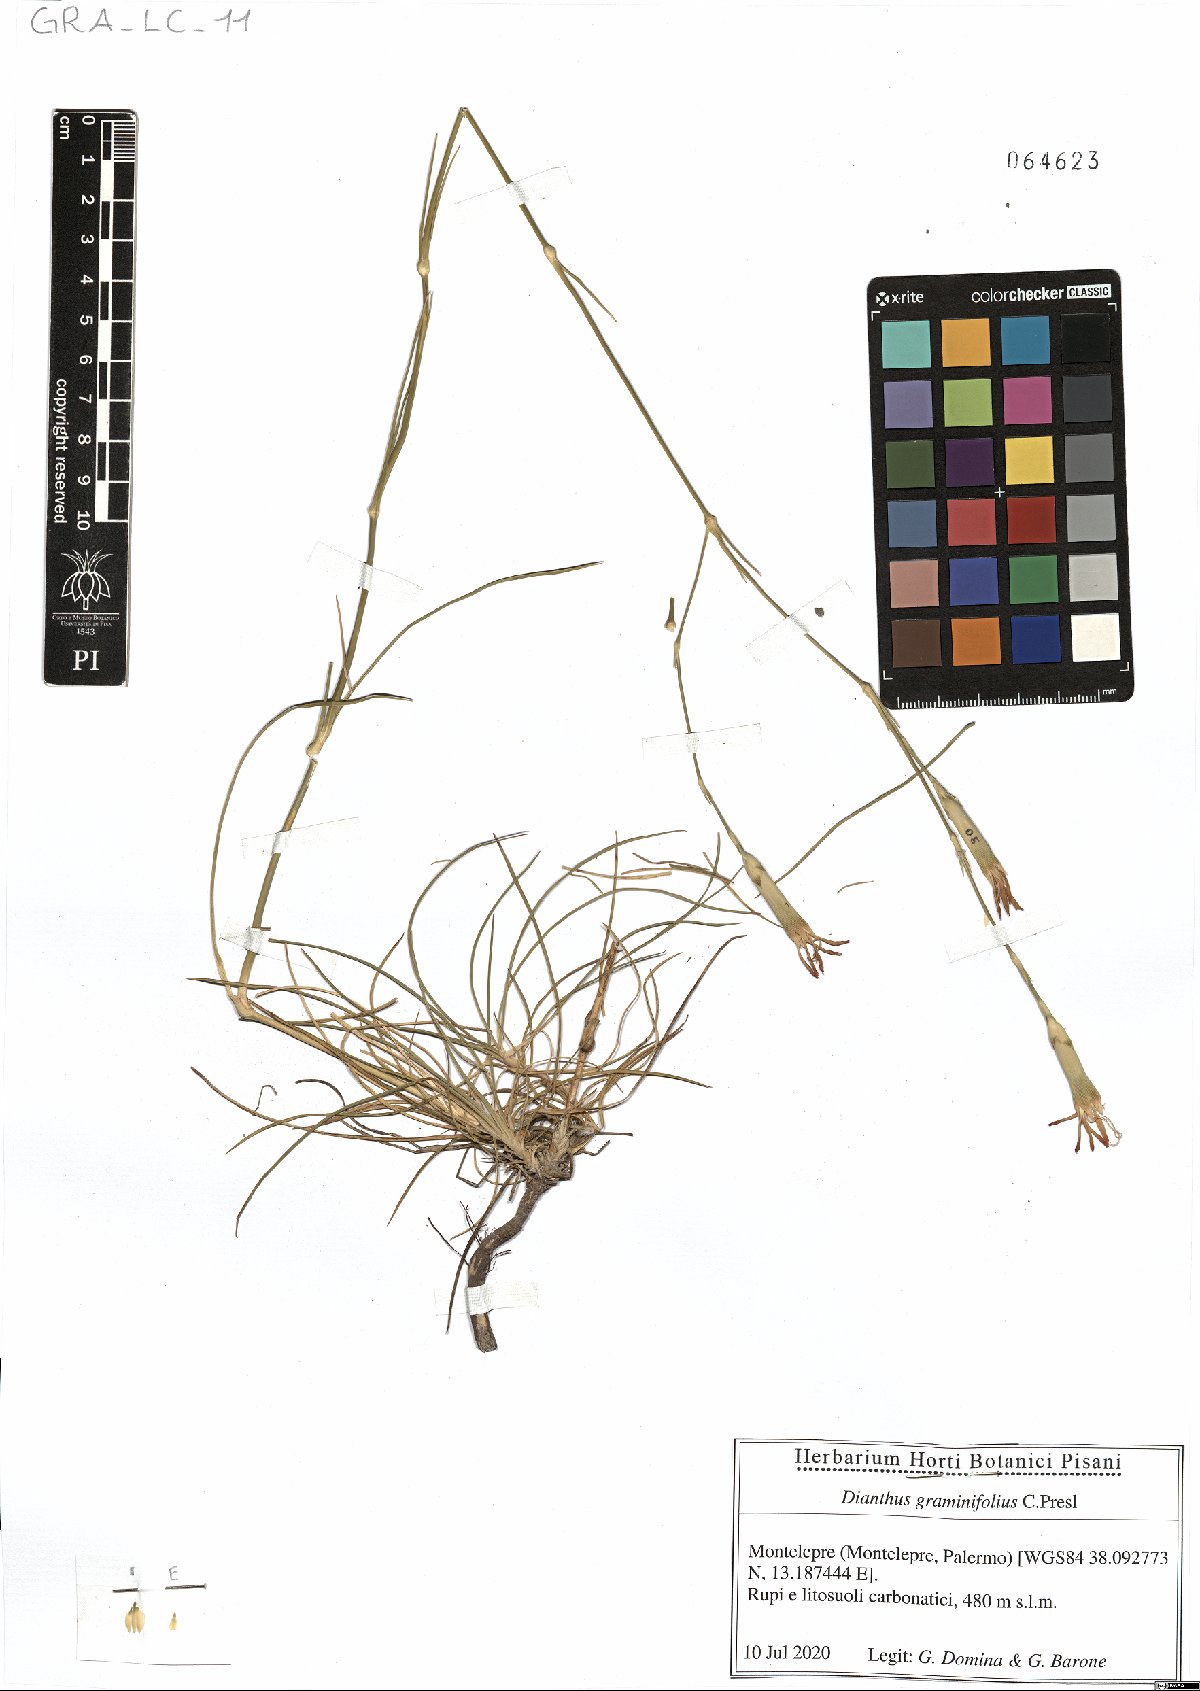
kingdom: Plantae
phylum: Tracheophyta
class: Magnoliopsida
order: Caryophyllales
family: Caryophyllaceae
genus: Dianthus
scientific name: Dianthus graminifolius
